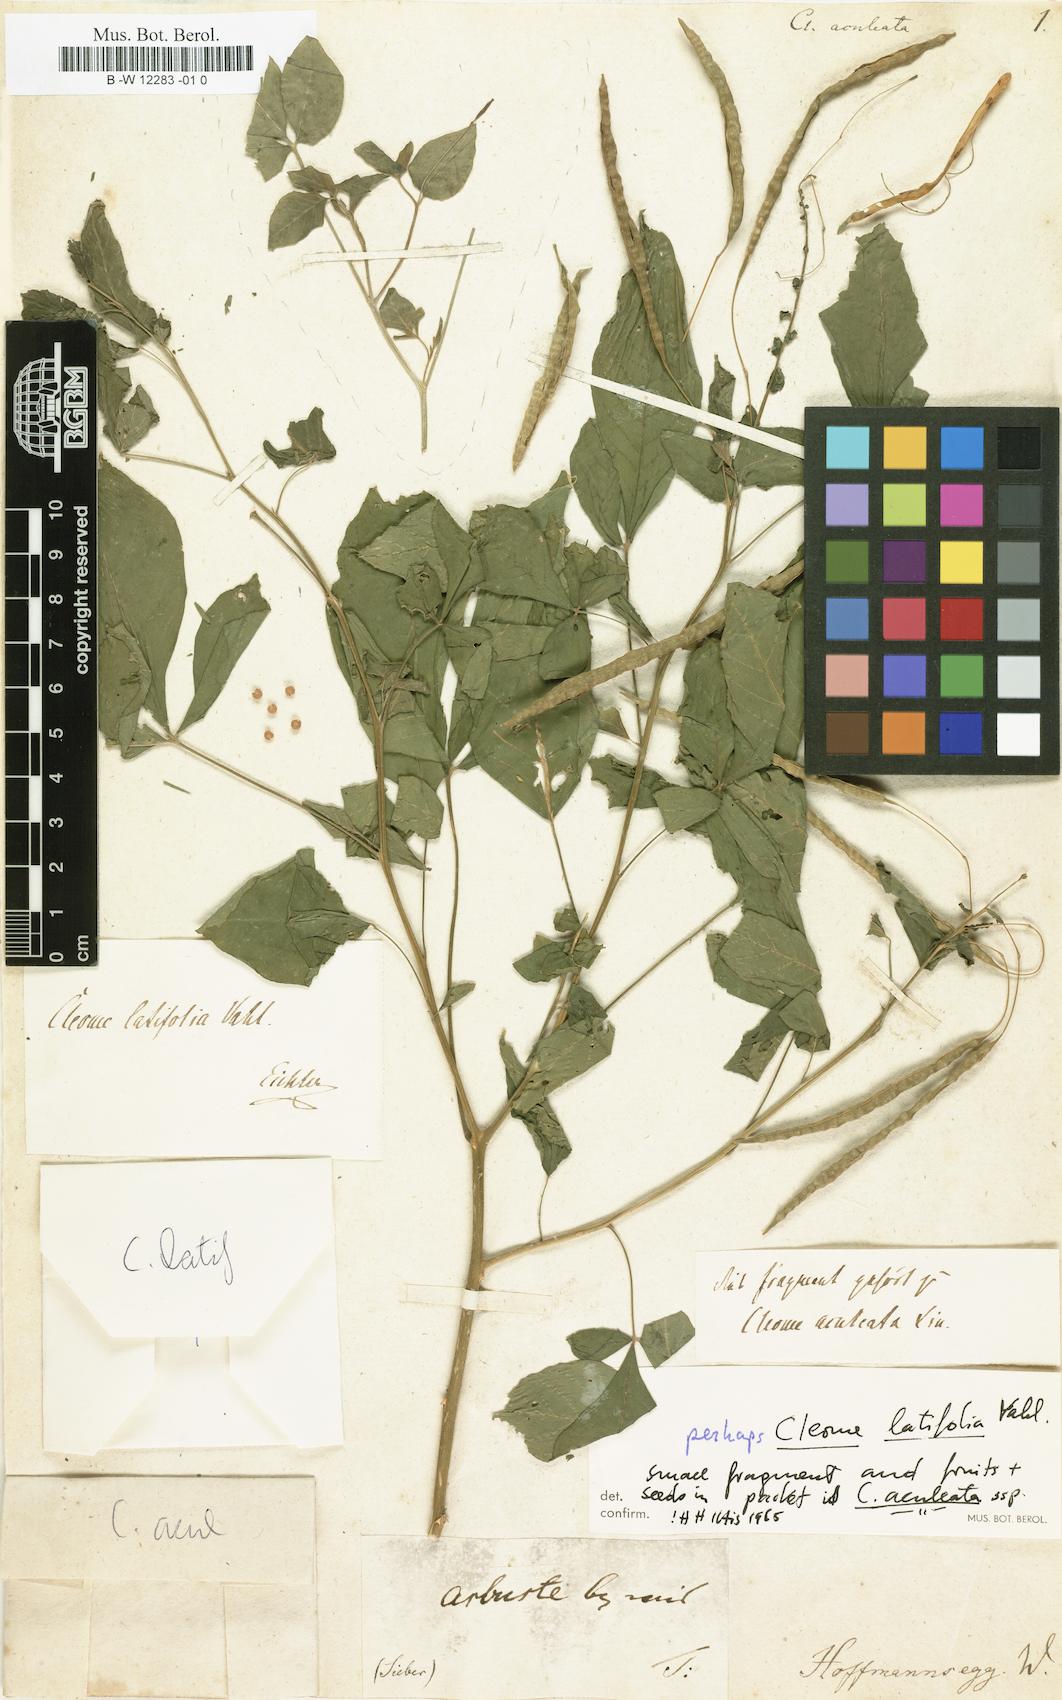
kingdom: Plantae
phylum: Tracheophyta
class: Magnoliopsida
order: Brassicales
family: Cleomaceae
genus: Tarenaya
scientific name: Tarenaya aculeata
